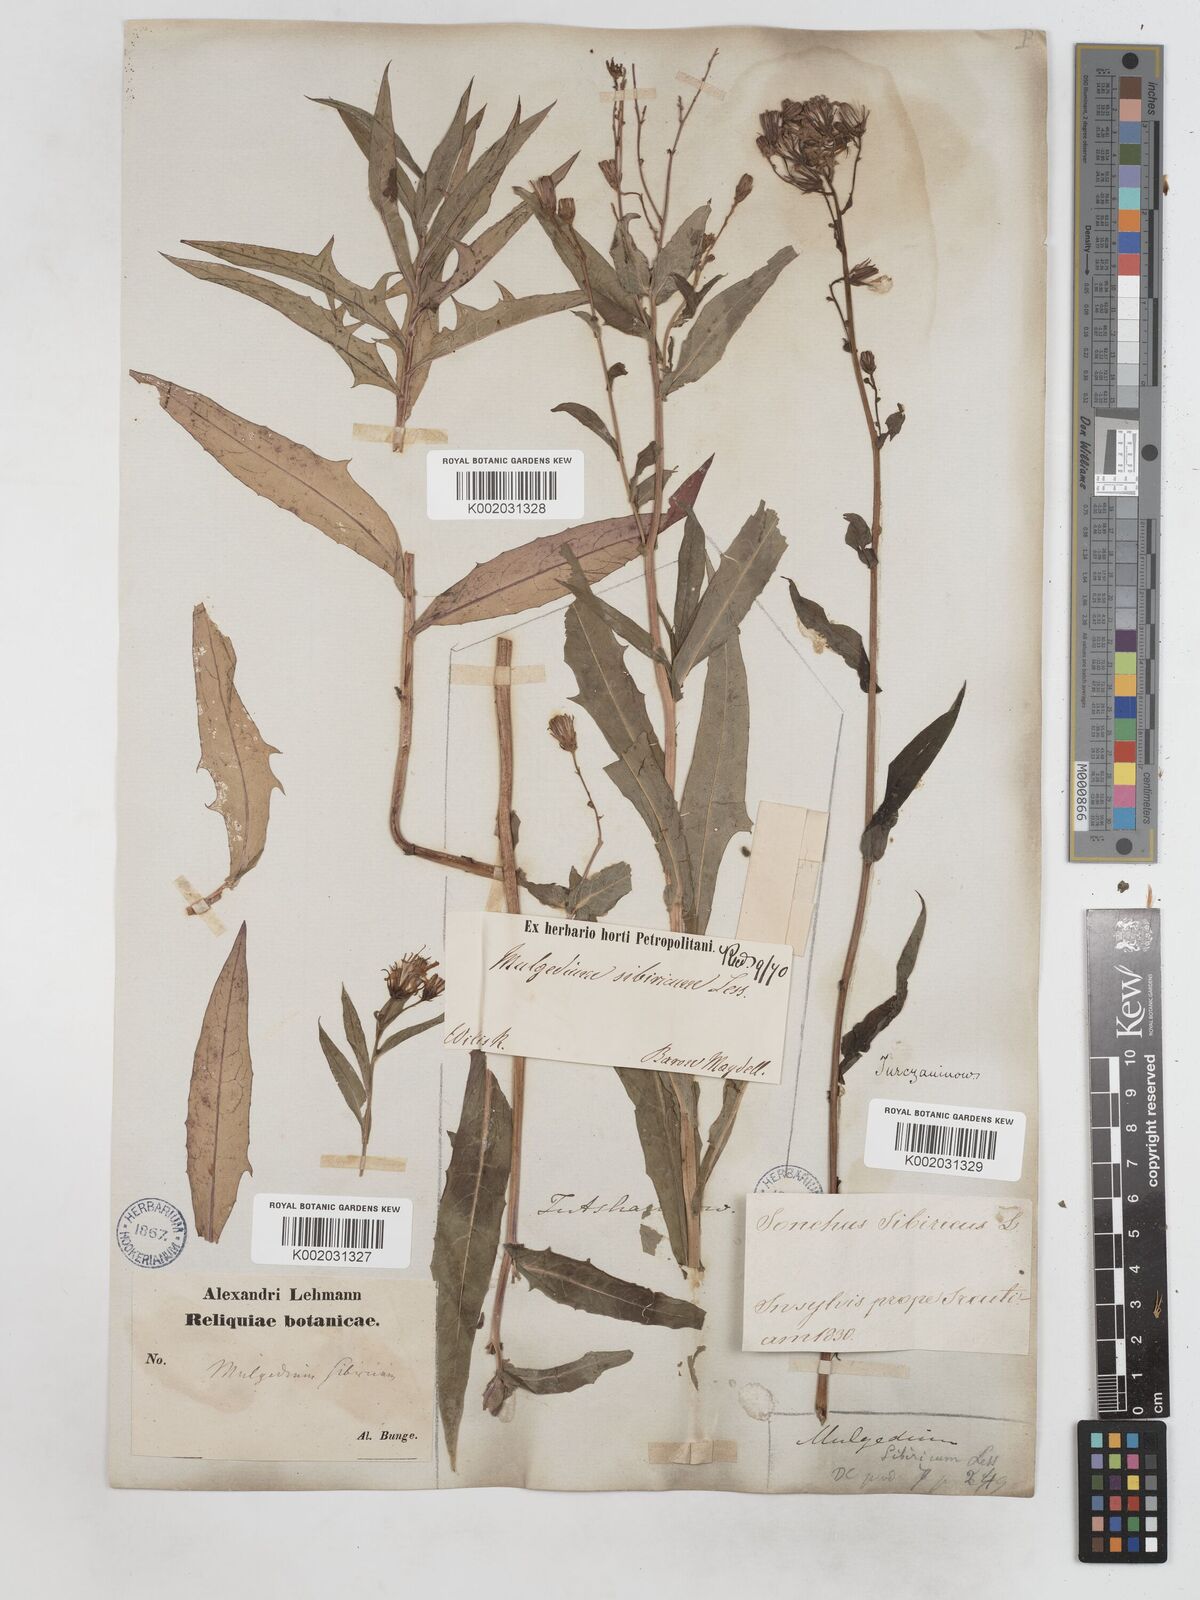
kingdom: Plantae
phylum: Tracheophyta
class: Magnoliopsida
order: Asterales
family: Asteraceae
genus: Lactuca
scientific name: Lactuca sibirica
